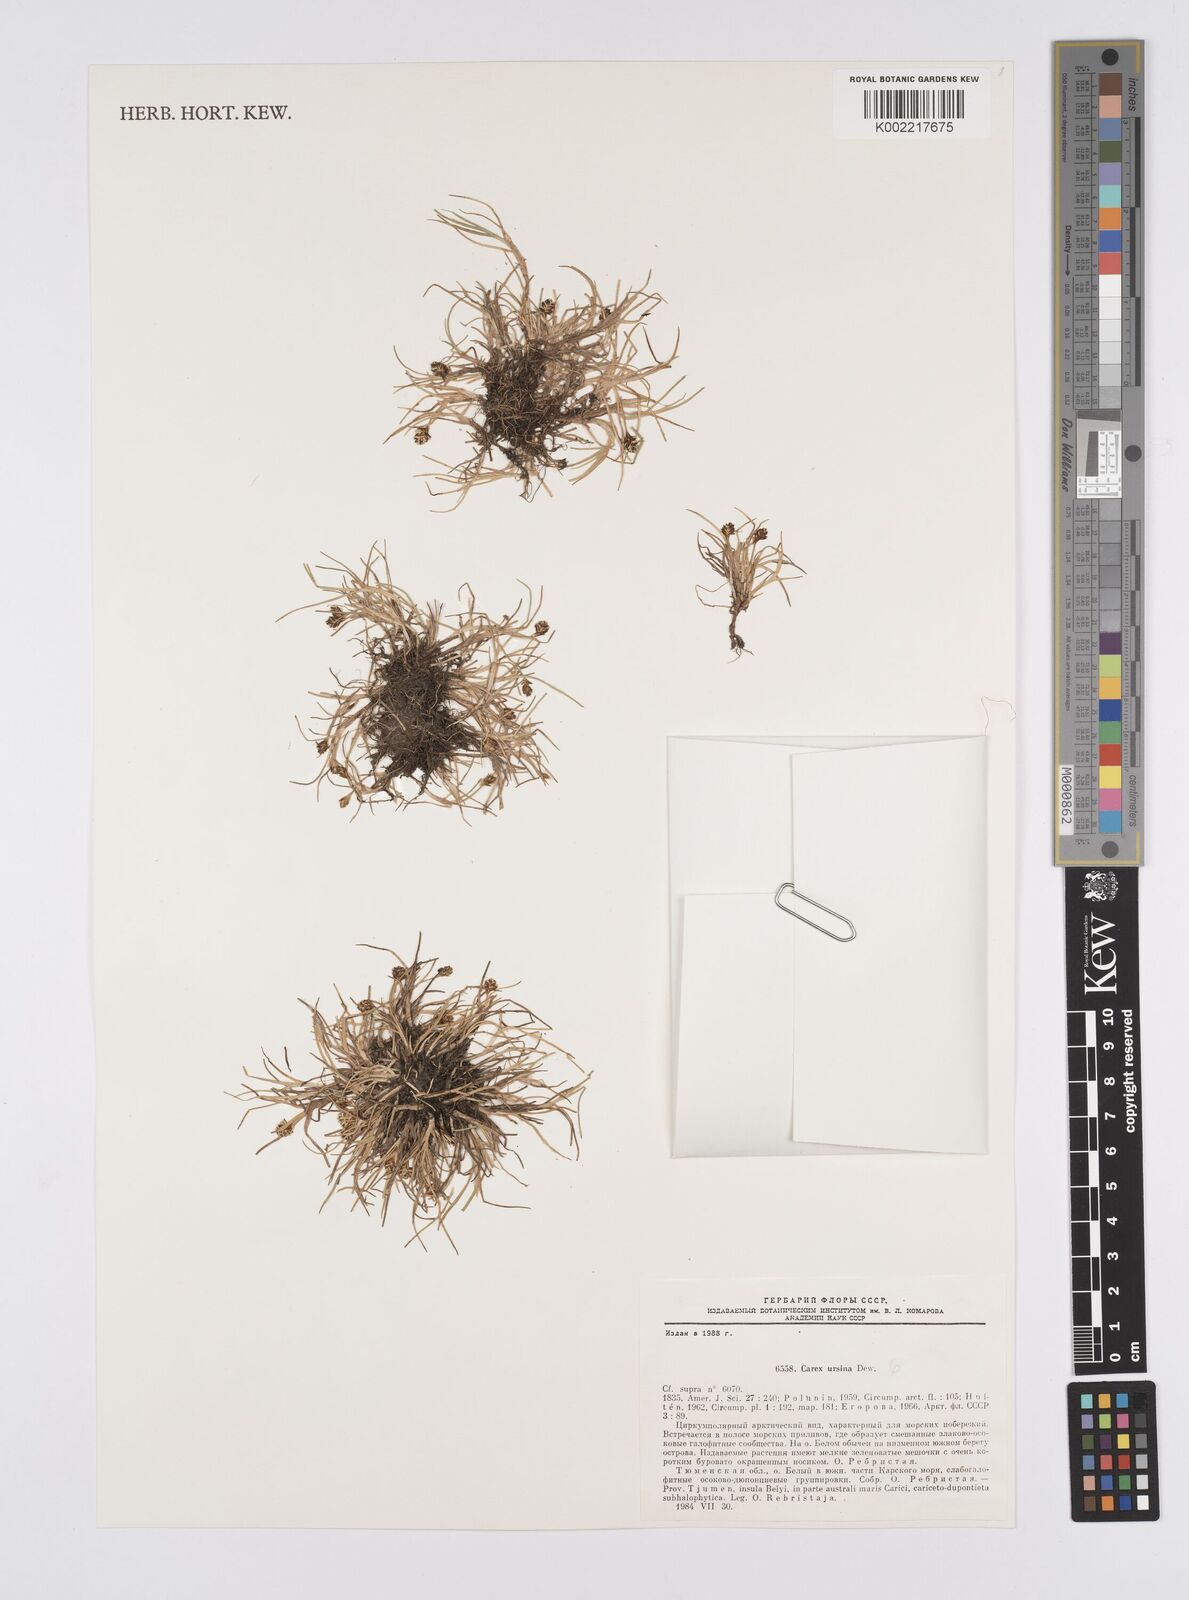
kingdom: Plantae
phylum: Tracheophyta
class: Liliopsida
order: Poales
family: Cyperaceae
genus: Carex
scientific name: Carex ursina
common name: Bear sedge
